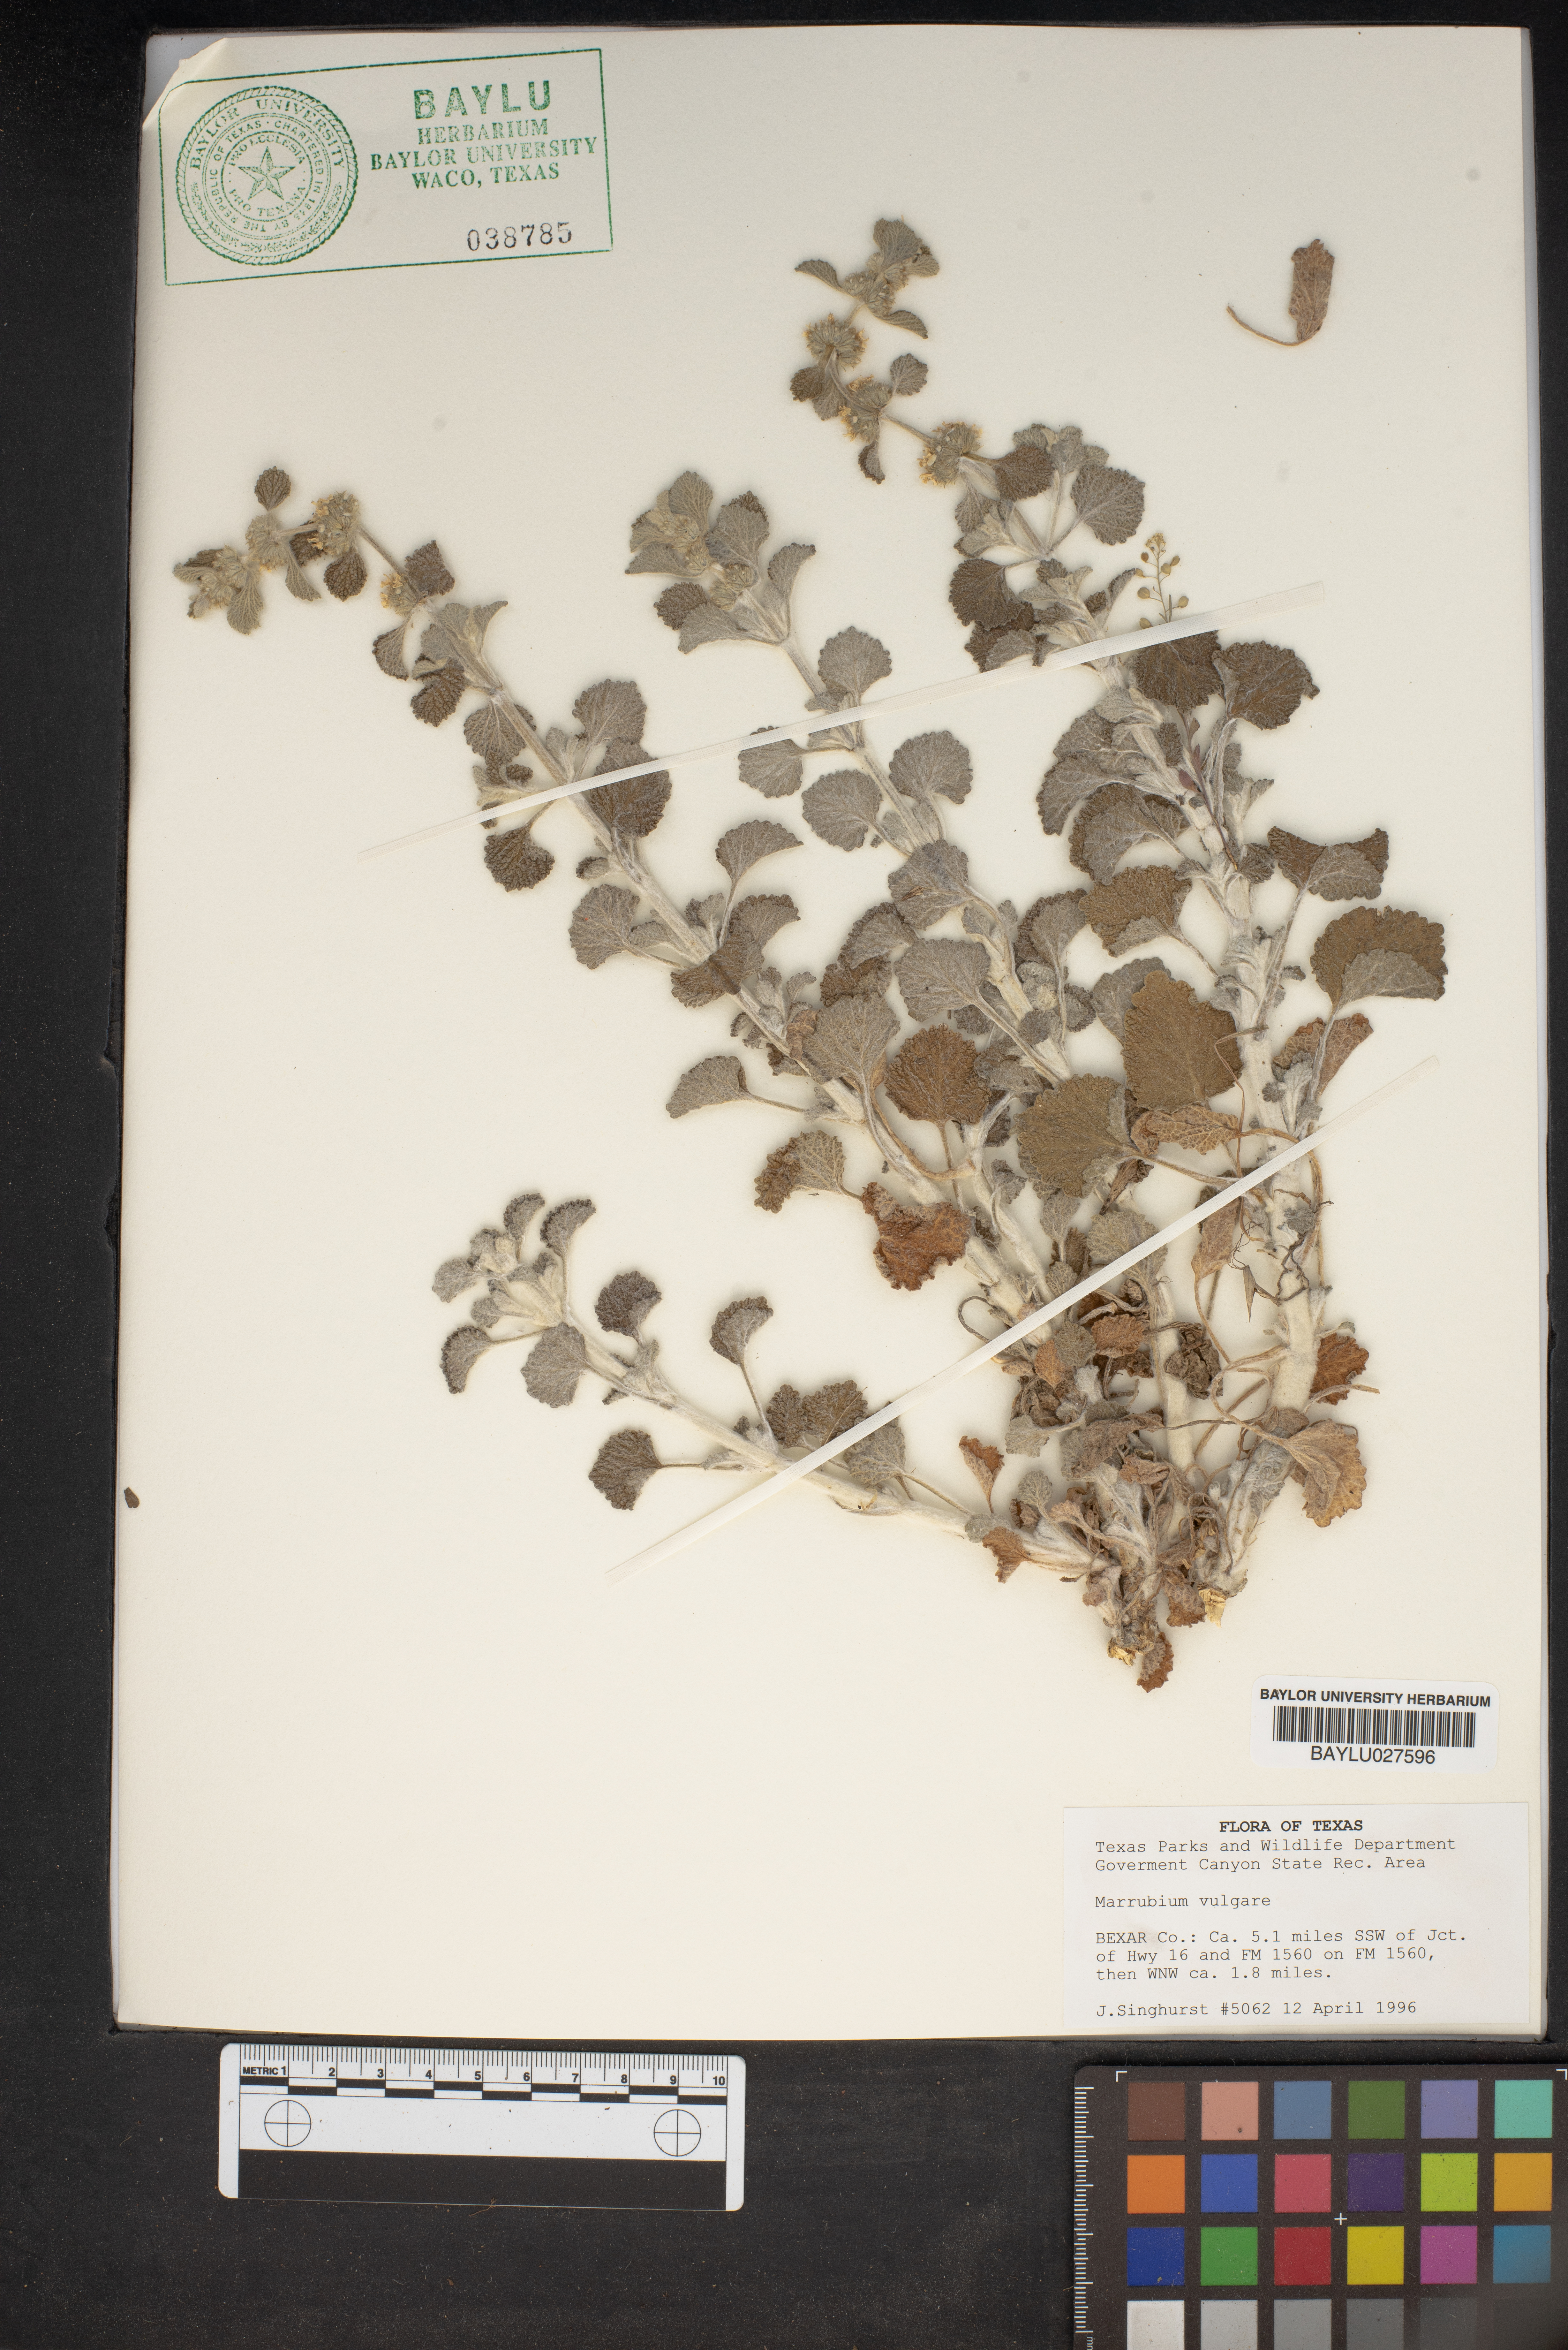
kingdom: Plantae
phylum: Tracheophyta
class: Magnoliopsida
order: Lamiales
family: Lamiaceae
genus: Marrubium
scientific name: Marrubium vulgare
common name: Horehound
